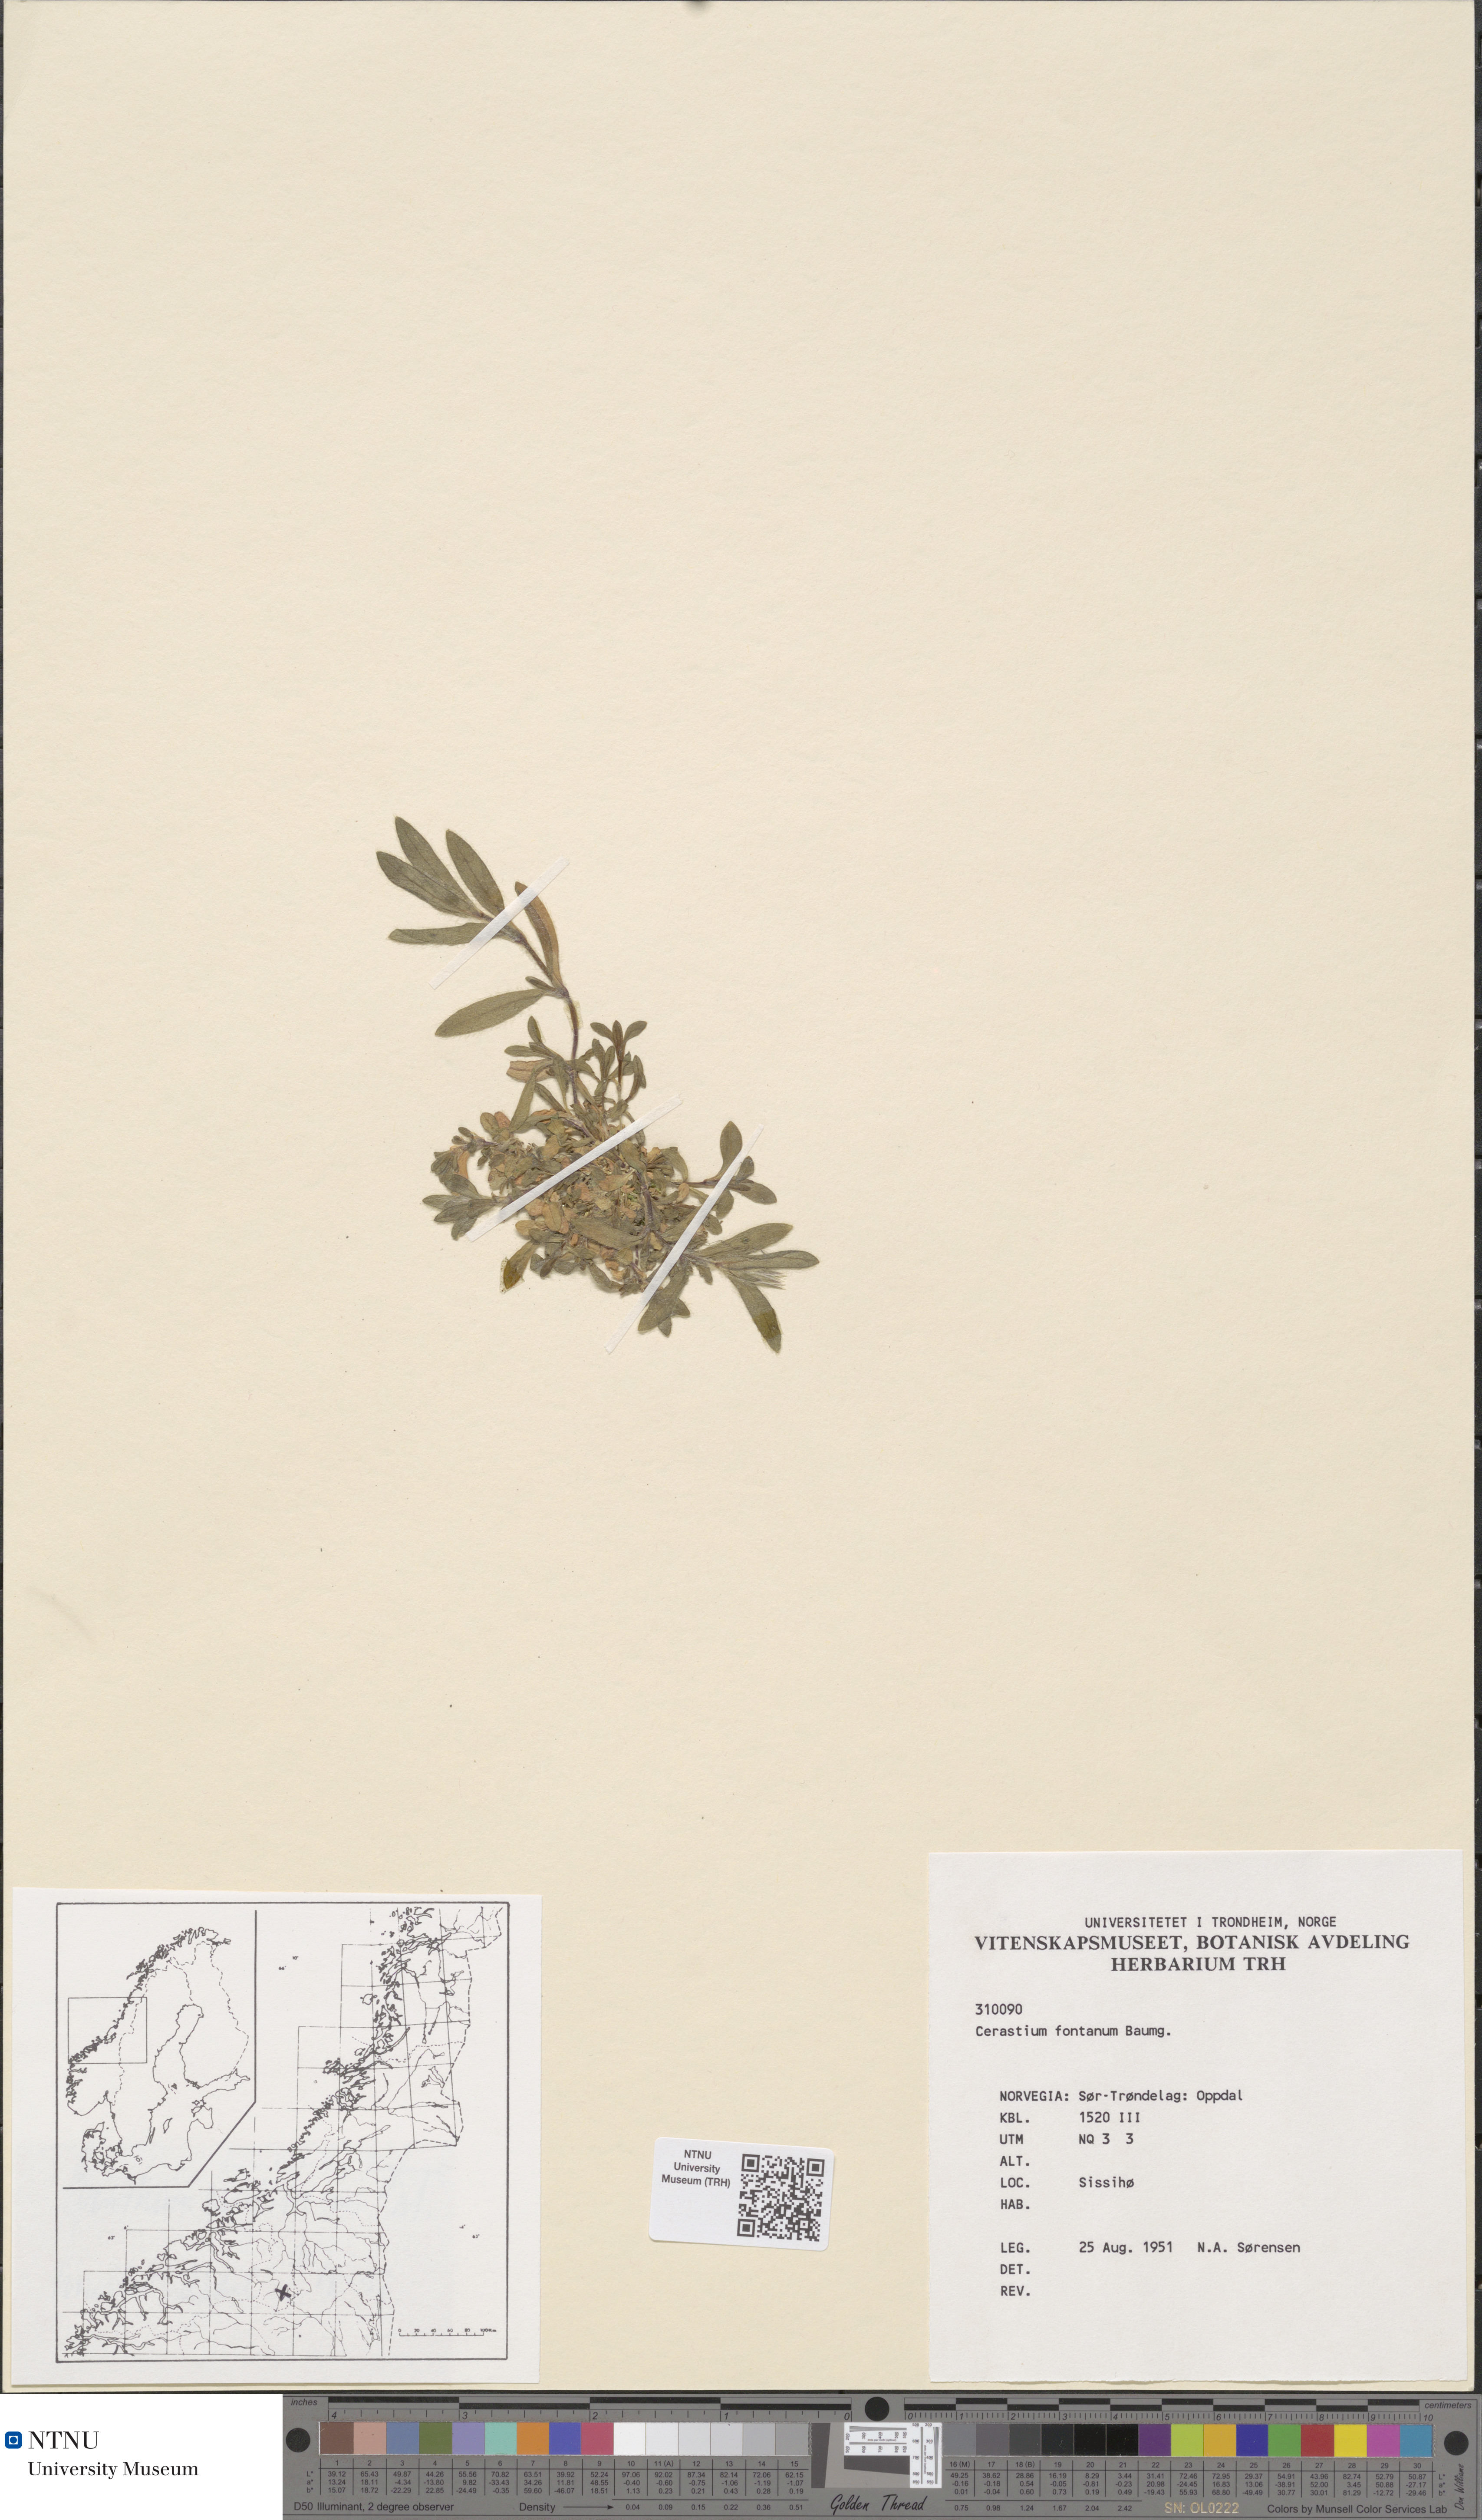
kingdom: Plantae
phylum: Tracheophyta
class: Magnoliopsida
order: Caryophyllales
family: Caryophyllaceae
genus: Cerastium
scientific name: Cerastium fontanum
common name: Common mouse-ear
